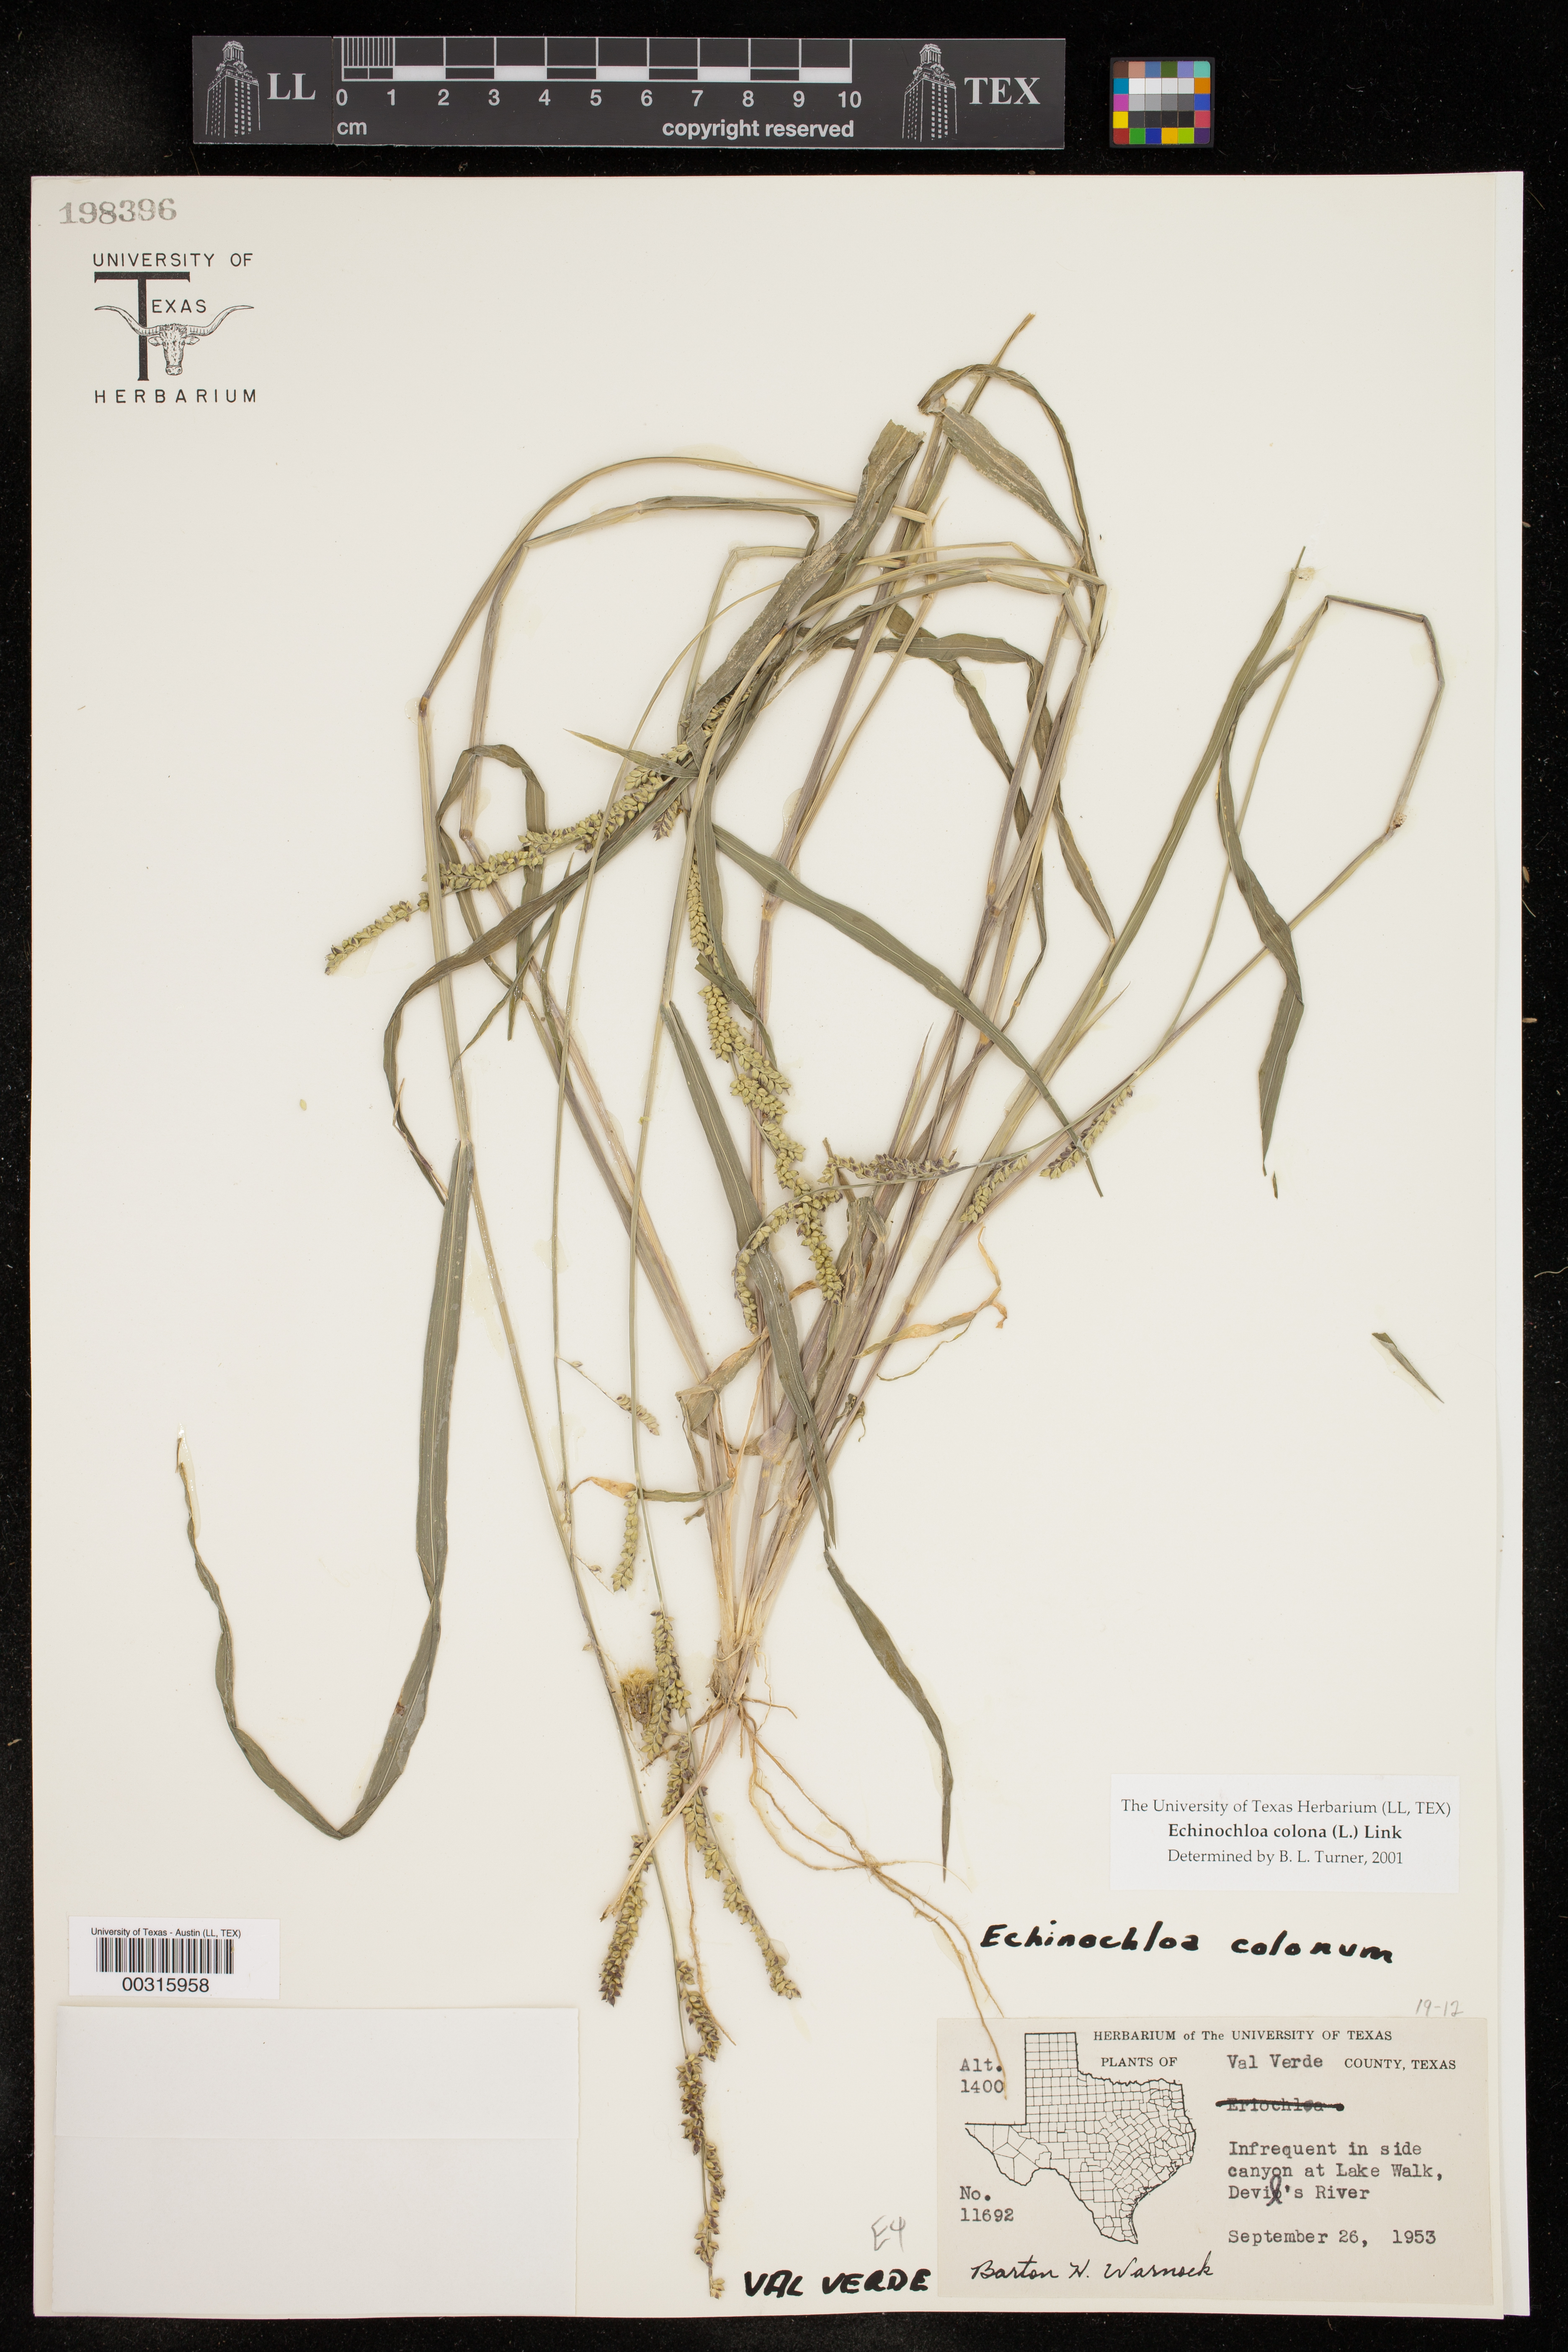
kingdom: Plantae
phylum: Tracheophyta
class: Liliopsida
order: Poales
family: Poaceae
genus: Echinochloa
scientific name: Echinochloa colonum
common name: Jungle rice
